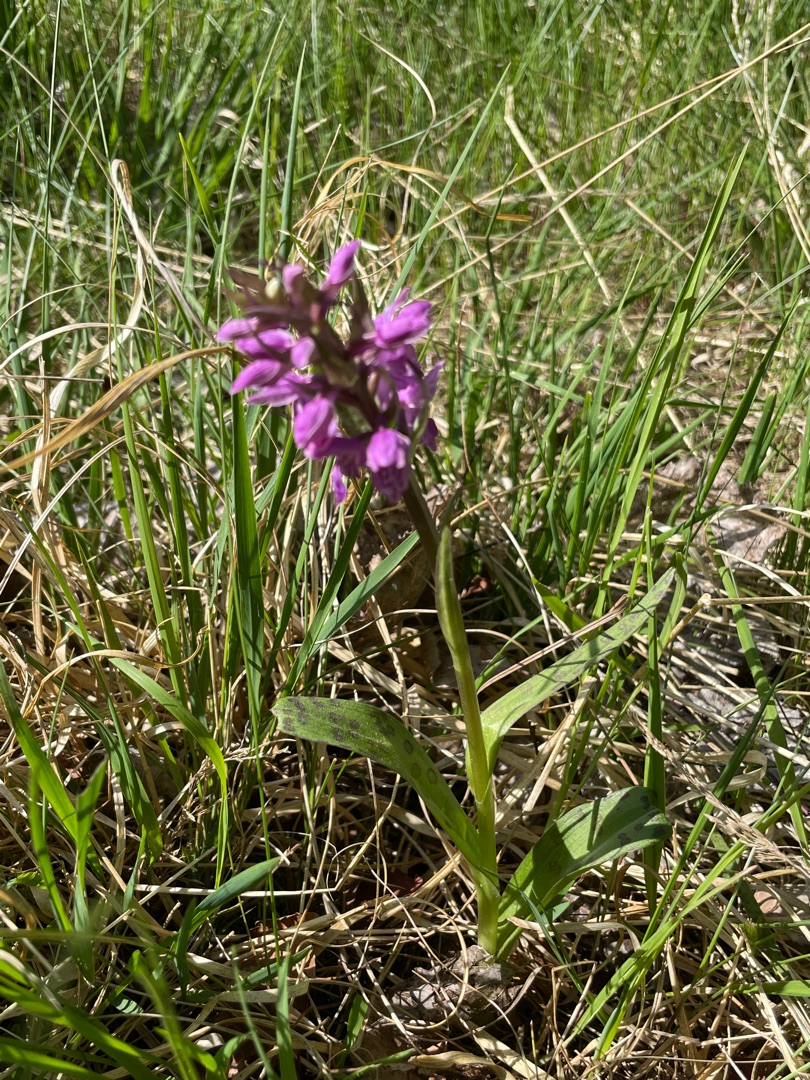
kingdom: Plantae
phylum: Tracheophyta
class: Liliopsida
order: Asparagales
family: Orchidaceae
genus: Dactylorhiza
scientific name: Dactylorhiza majalis
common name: Maj-gøgeurt
